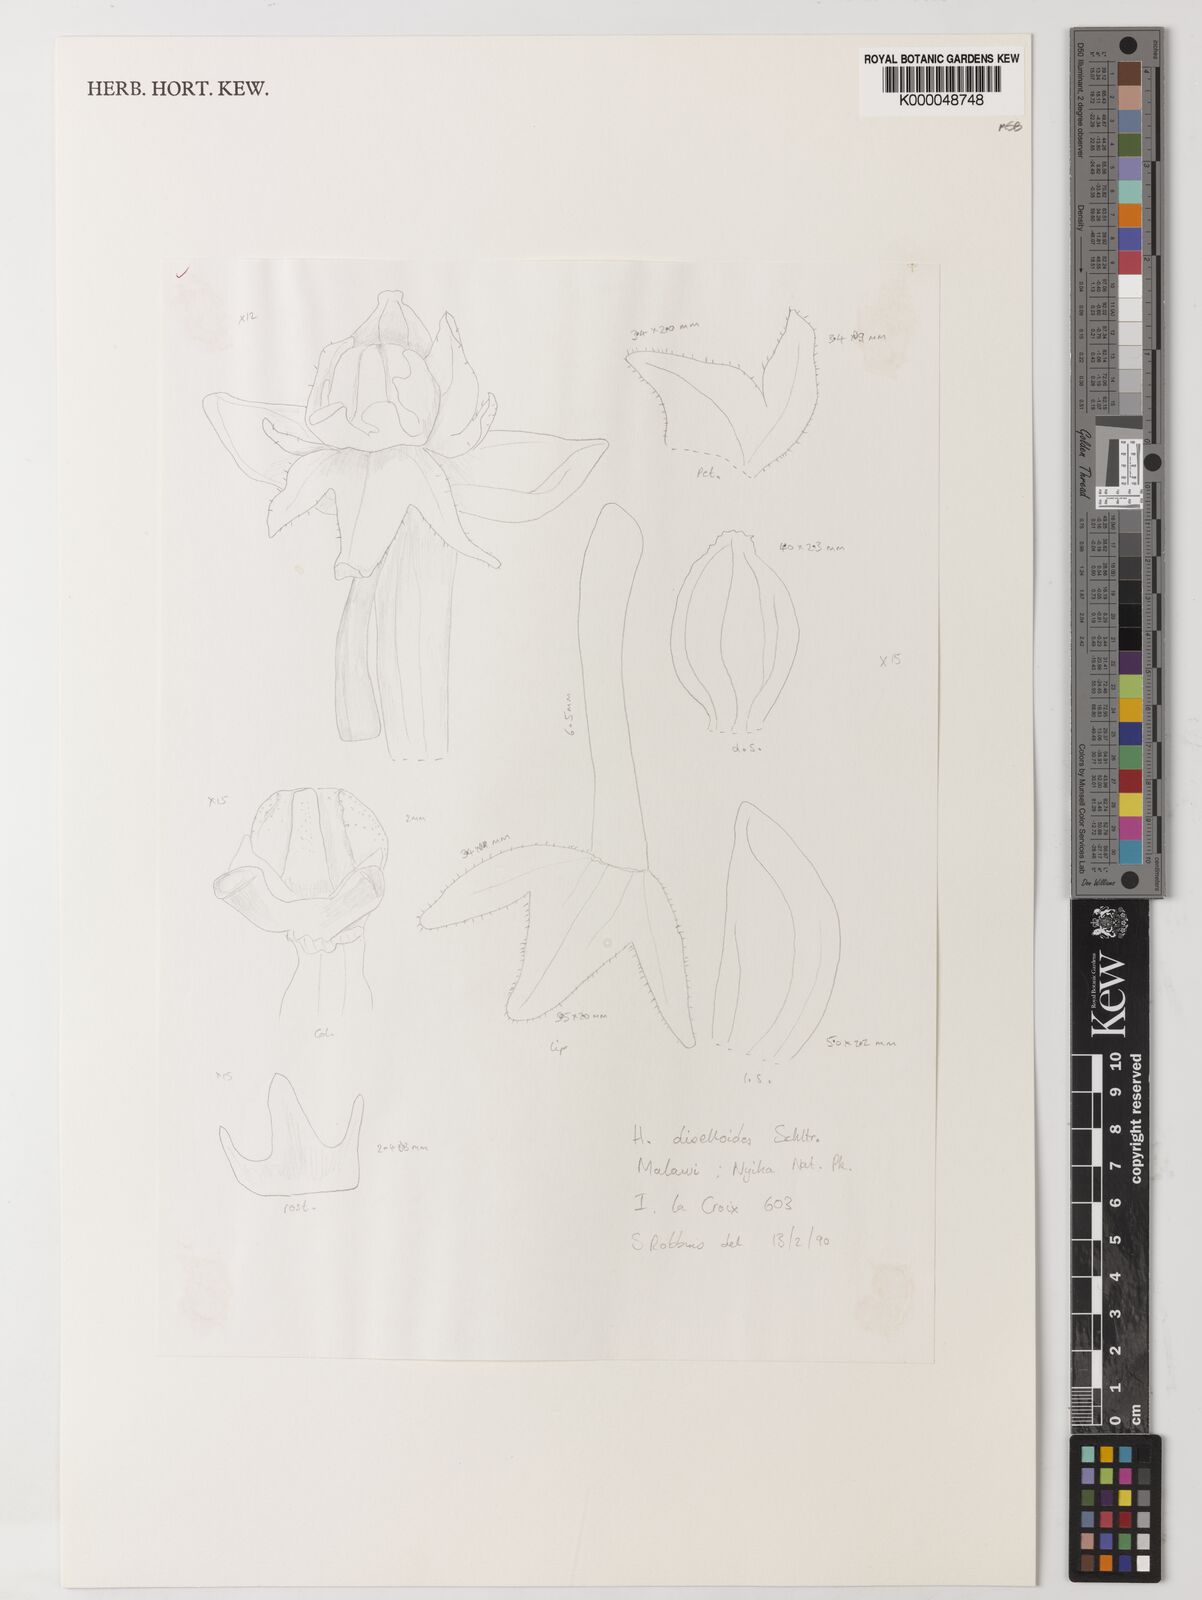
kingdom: Plantae
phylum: Tracheophyta
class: Liliopsida
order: Asparagales
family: Orchidaceae
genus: Habenaria
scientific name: Habenaria diselloides
